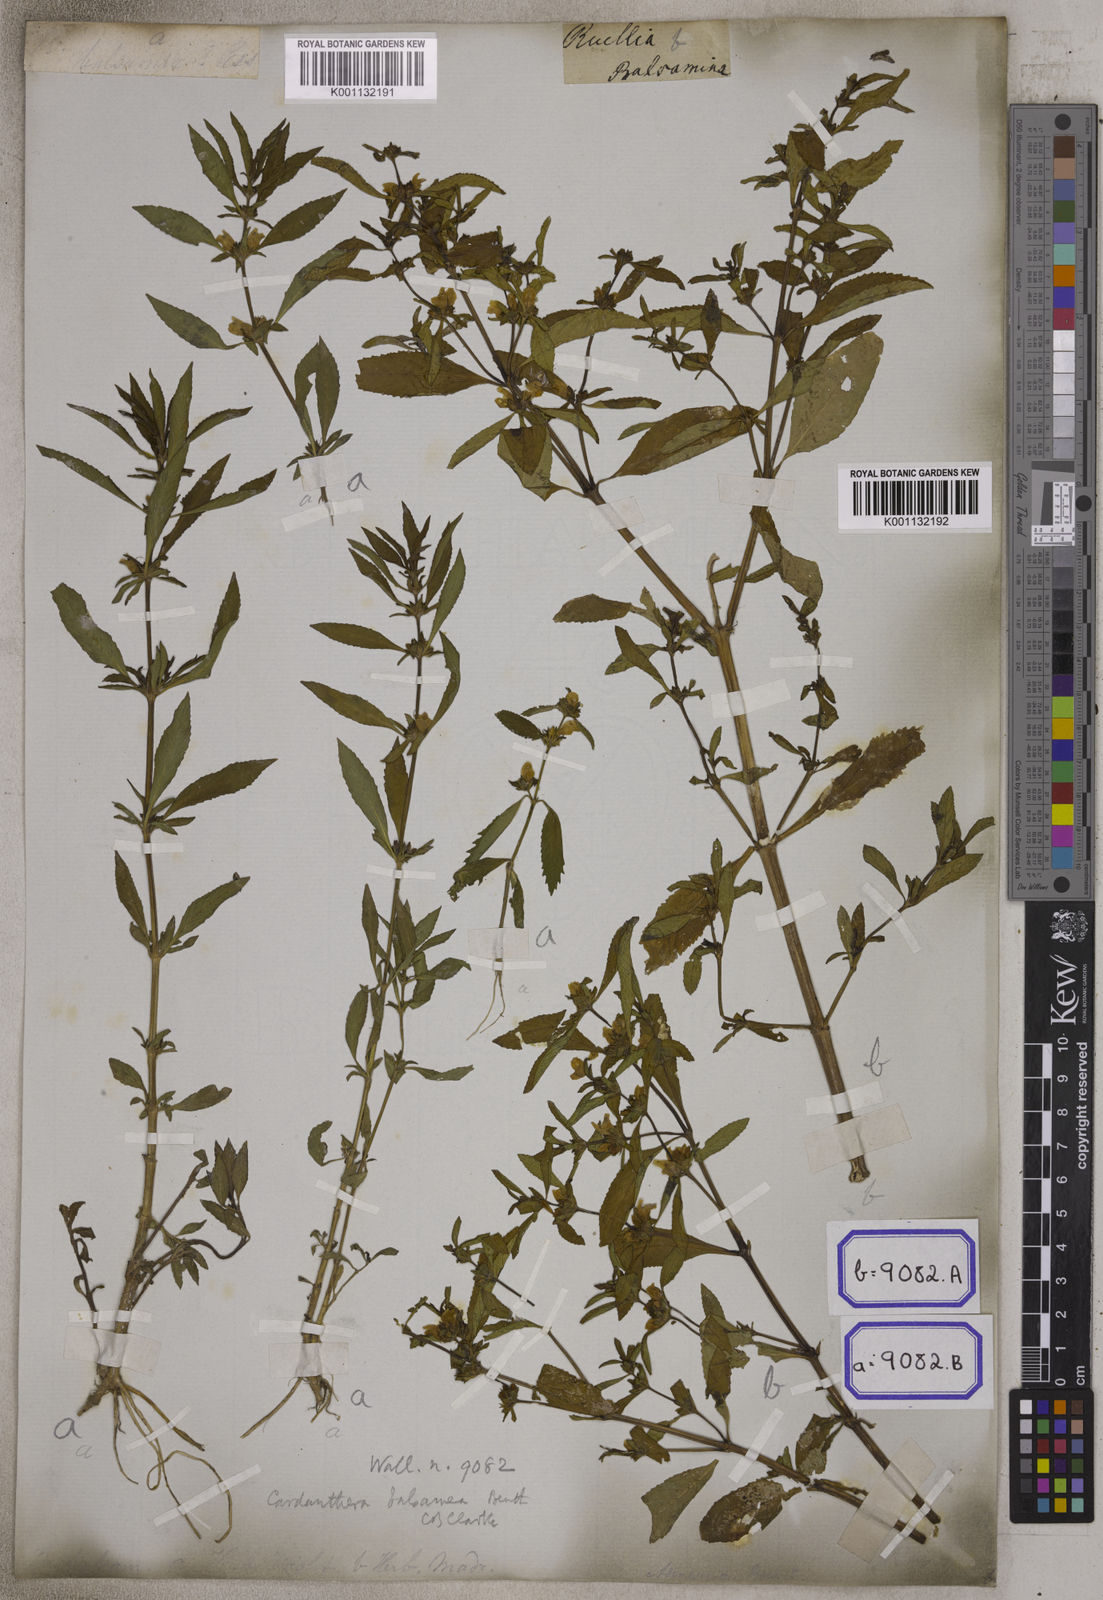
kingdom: Plantae
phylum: Tracheophyta
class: Magnoliopsida
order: Lamiales
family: Acanthaceae
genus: Hygrophila
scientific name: Hygrophila balsamica
